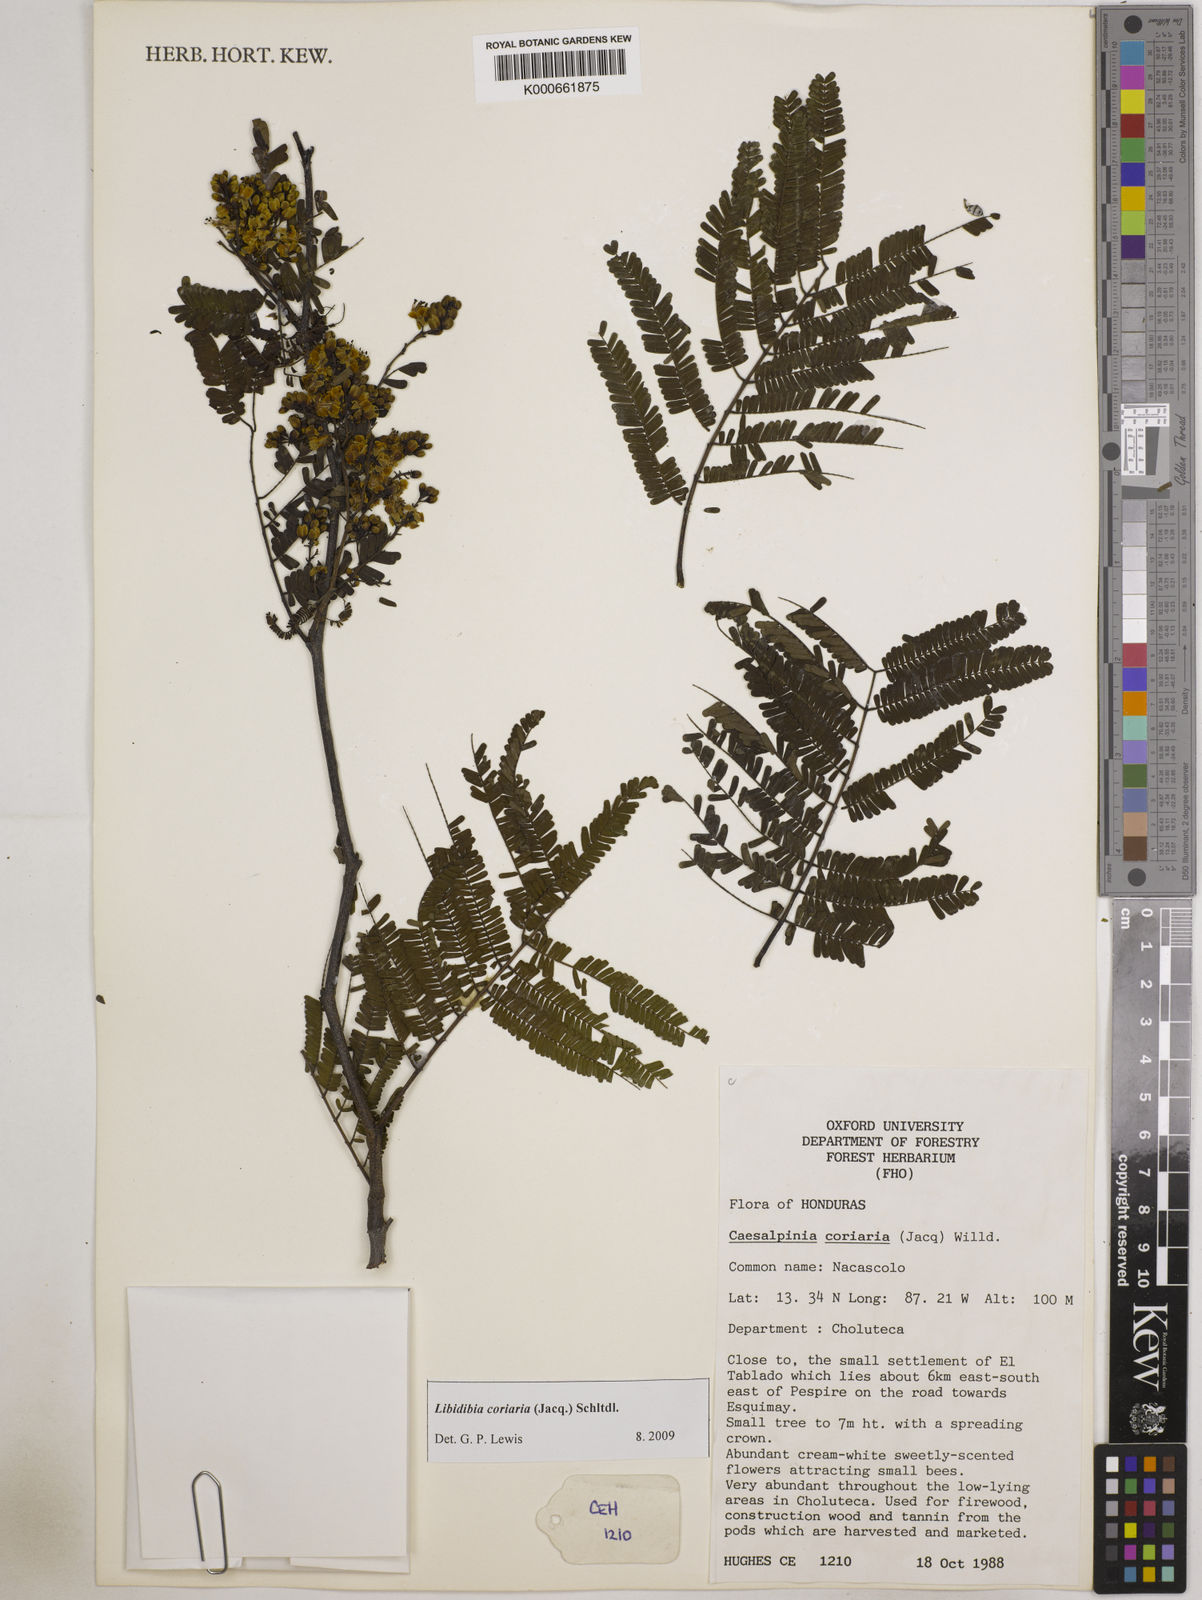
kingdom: Plantae
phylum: Tracheophyta
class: Magnoliopsida
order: Fabales
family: Fabaceae
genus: Libidibia
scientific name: Libidibia coriaria
